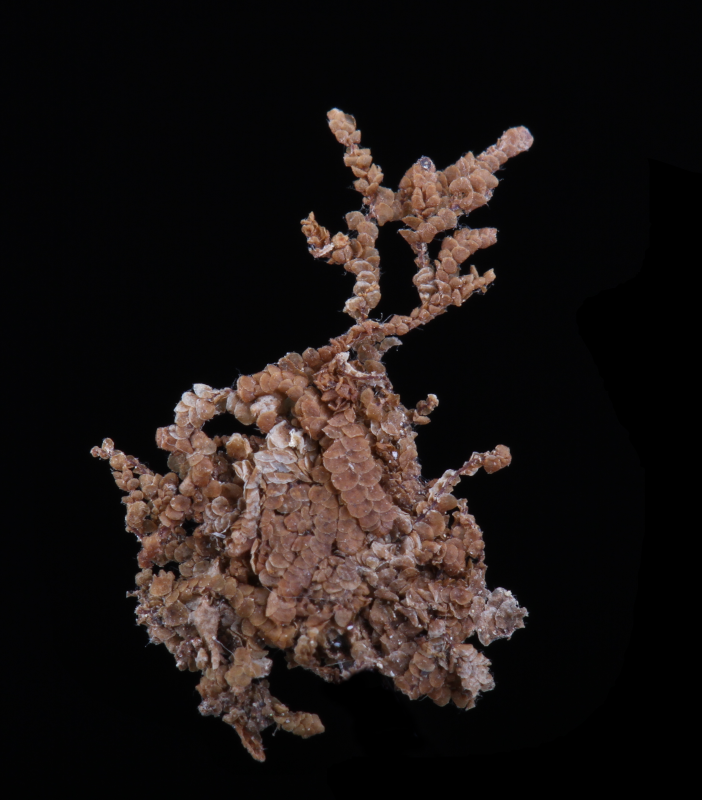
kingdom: Plantae
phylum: Marchantiophyta
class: Jungermanniopsida
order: Porellales
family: Lejeuneaceae
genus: Cheilolejeunea
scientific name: Cheilolejeunea trifaria
